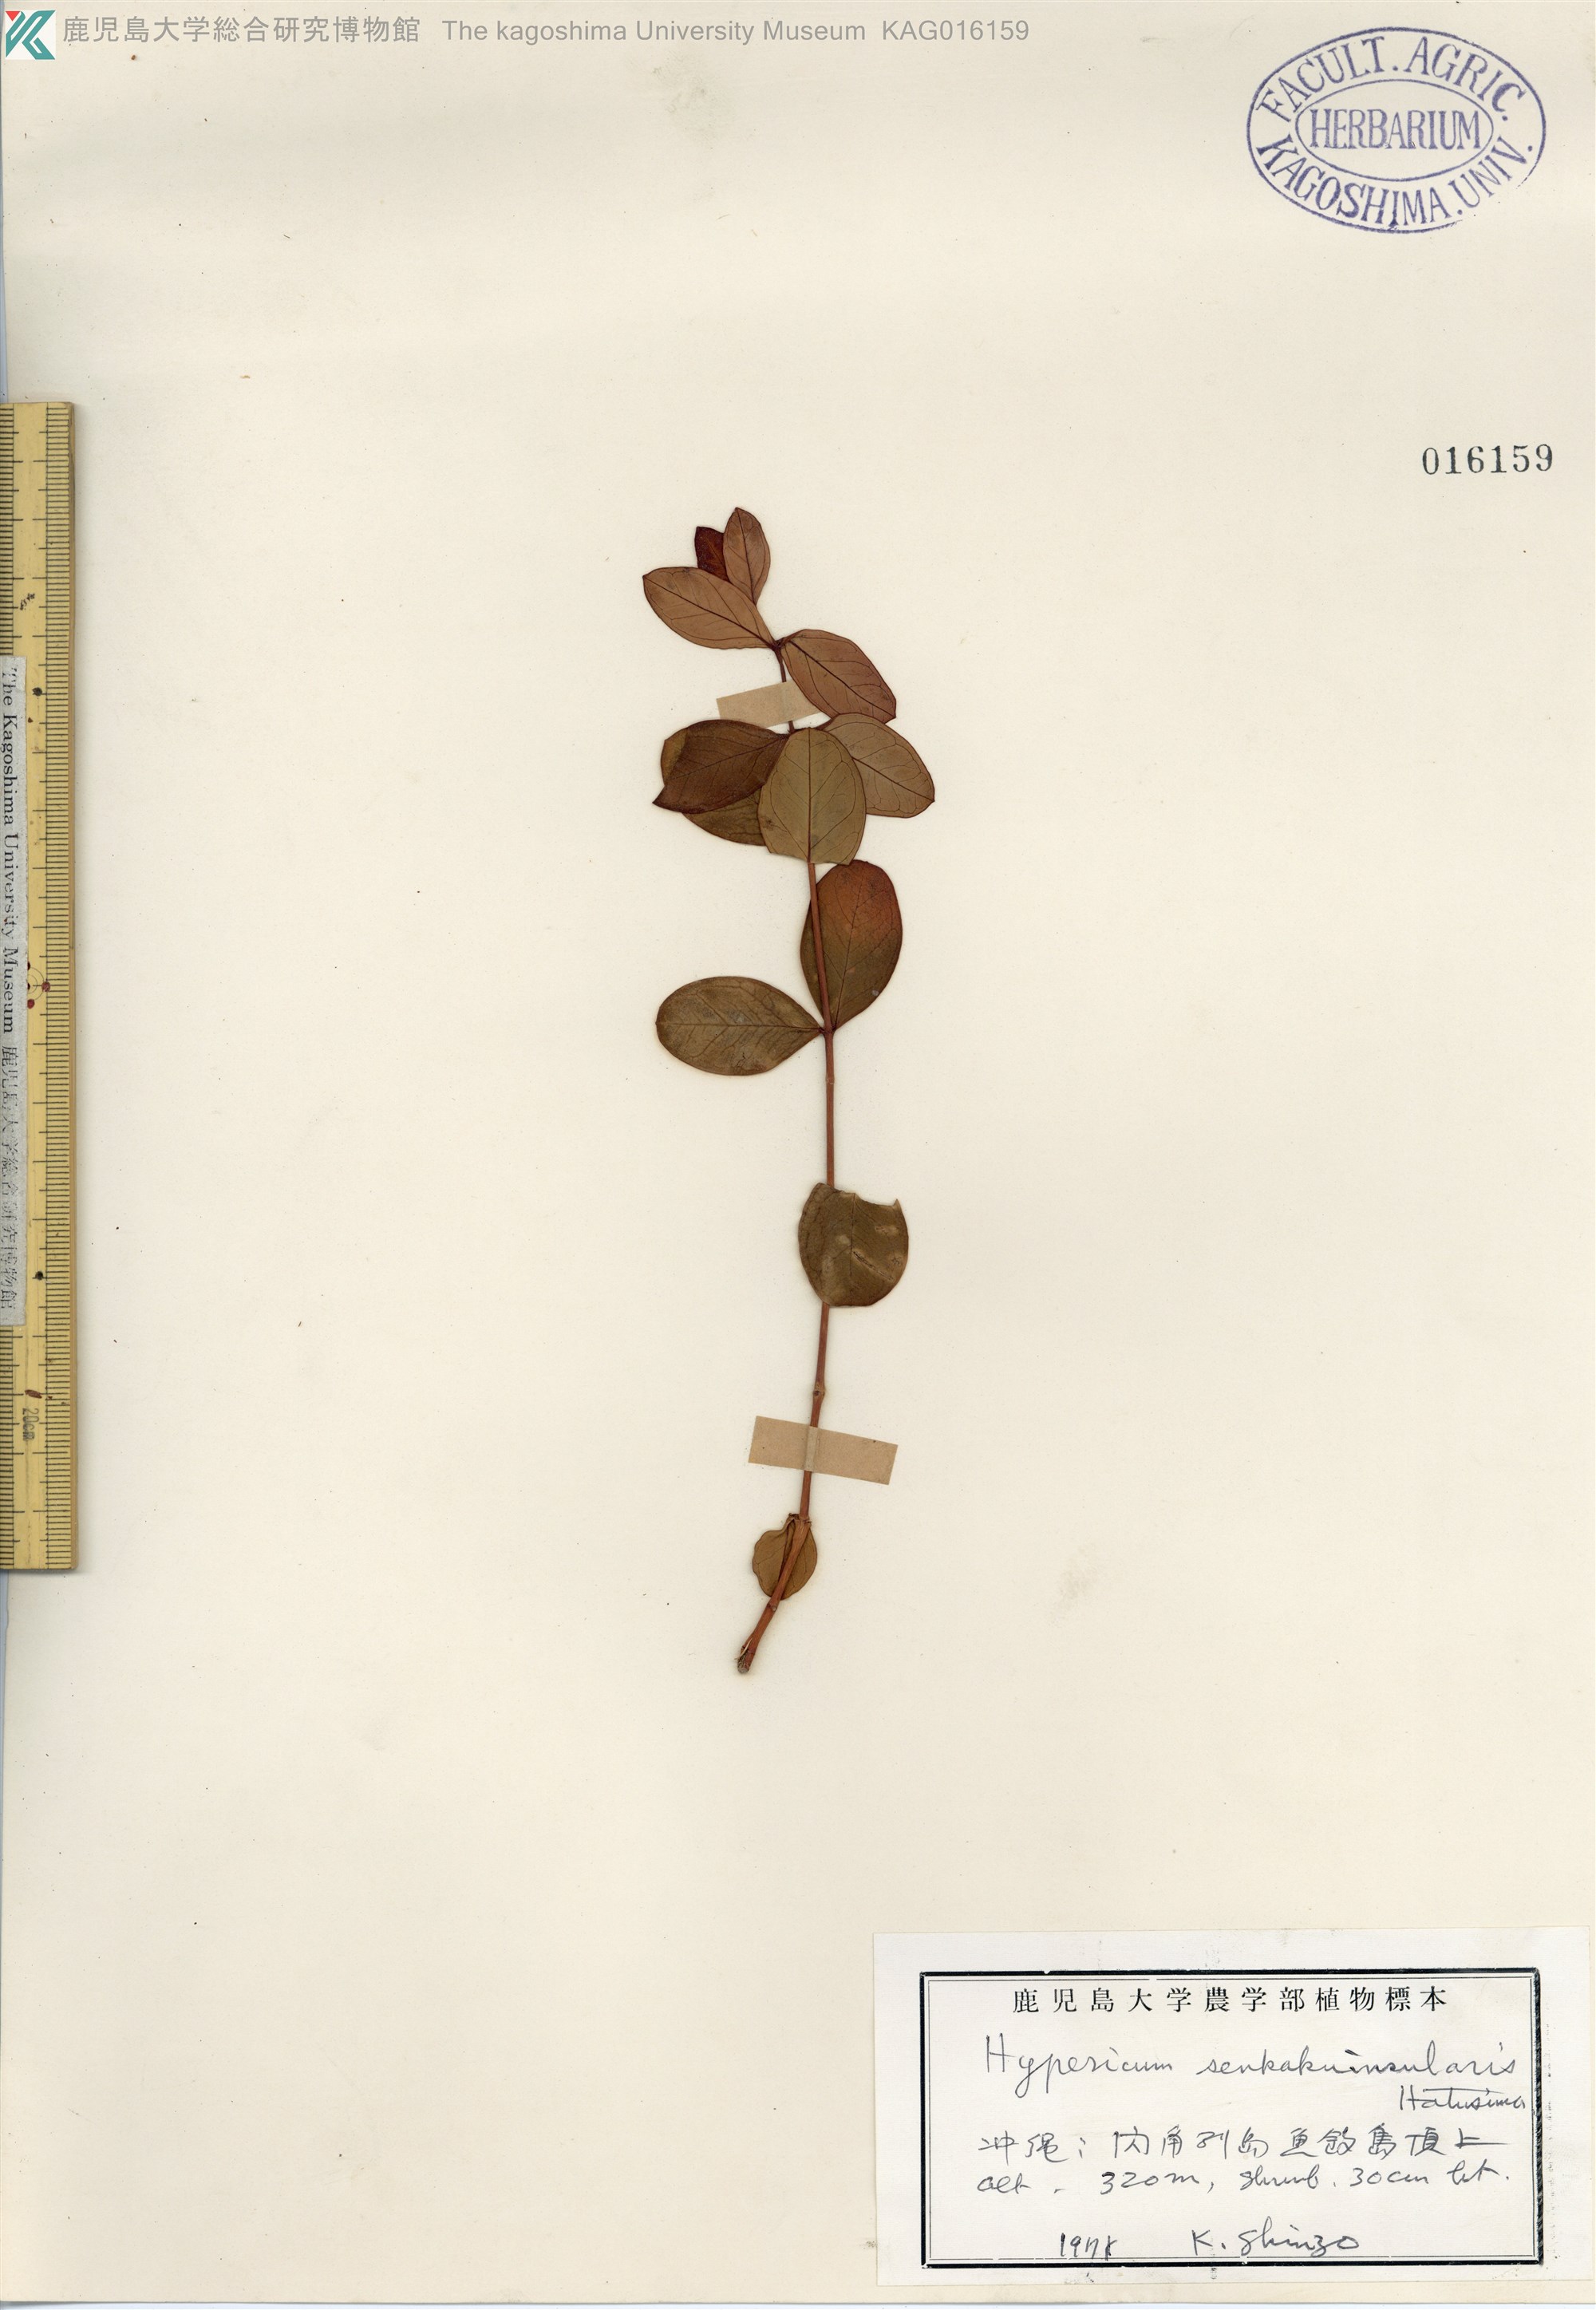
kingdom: Plantae
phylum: Tracheophyta
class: Magnoliopsida
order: Malpighiales
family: Hypericaceae
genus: Hypericum
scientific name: Hypericum senkakuinsulare
